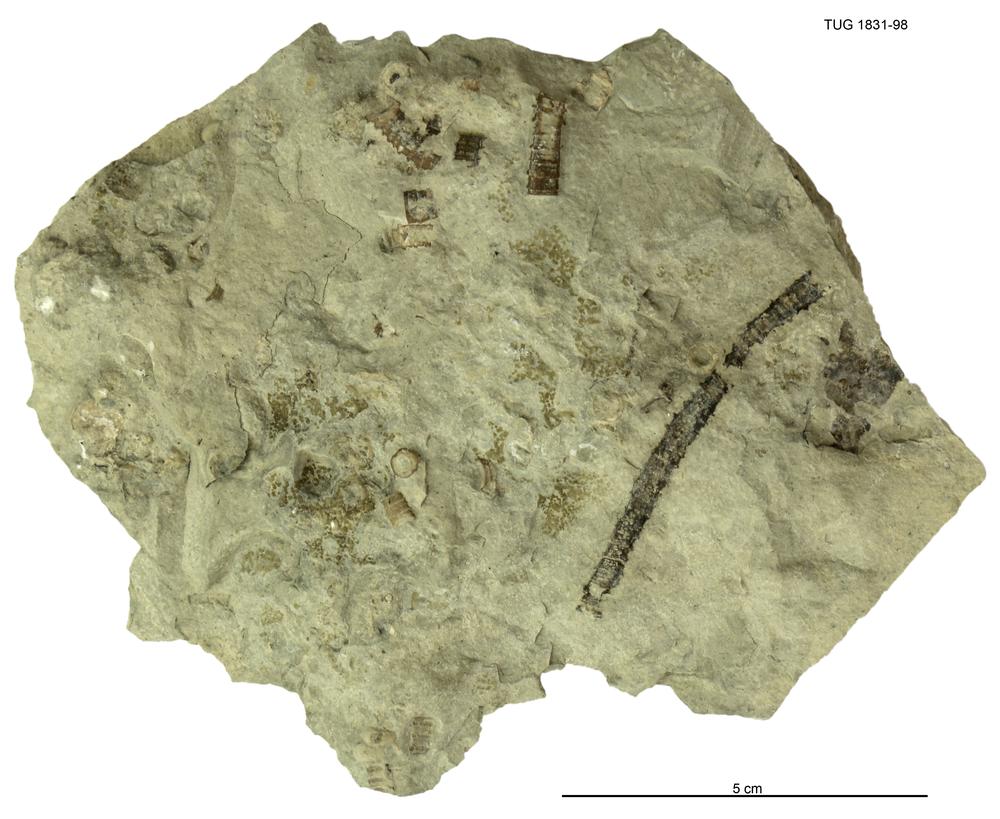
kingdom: Animalia
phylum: Echinodermata
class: Crinoidea
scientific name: Crinoidea
